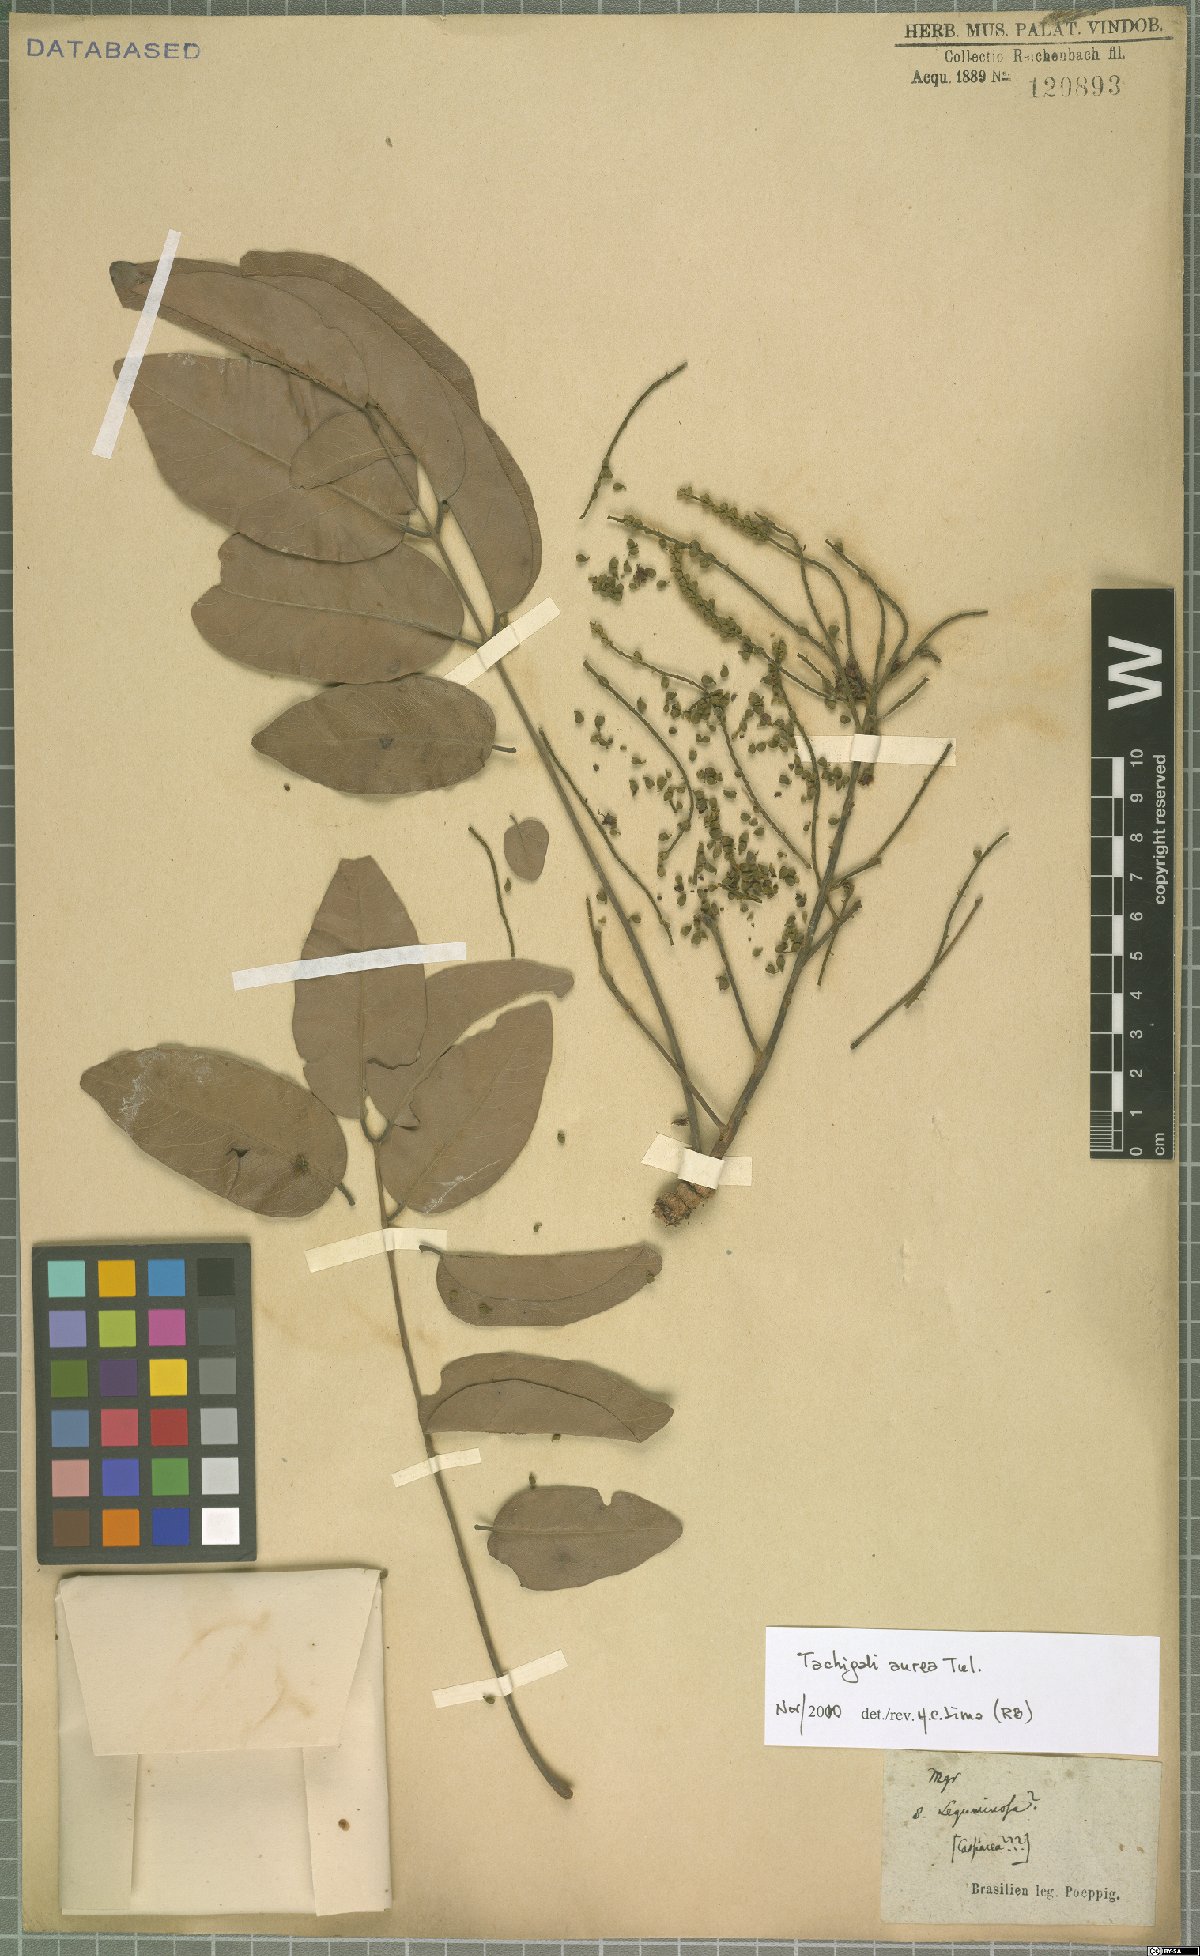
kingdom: Plantae
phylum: Tracheophyta
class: Magnoliopsida
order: Fabales
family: Fabaceae
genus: Tachigali
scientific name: Tachigali aurea
